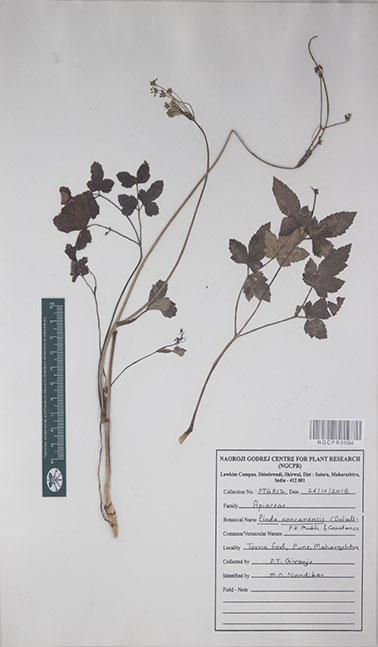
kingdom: Plantae
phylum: Tracheophyta
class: Magnoliopsida
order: Apiales
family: Apiaceae
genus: Pinda
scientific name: Pinda concanensis
